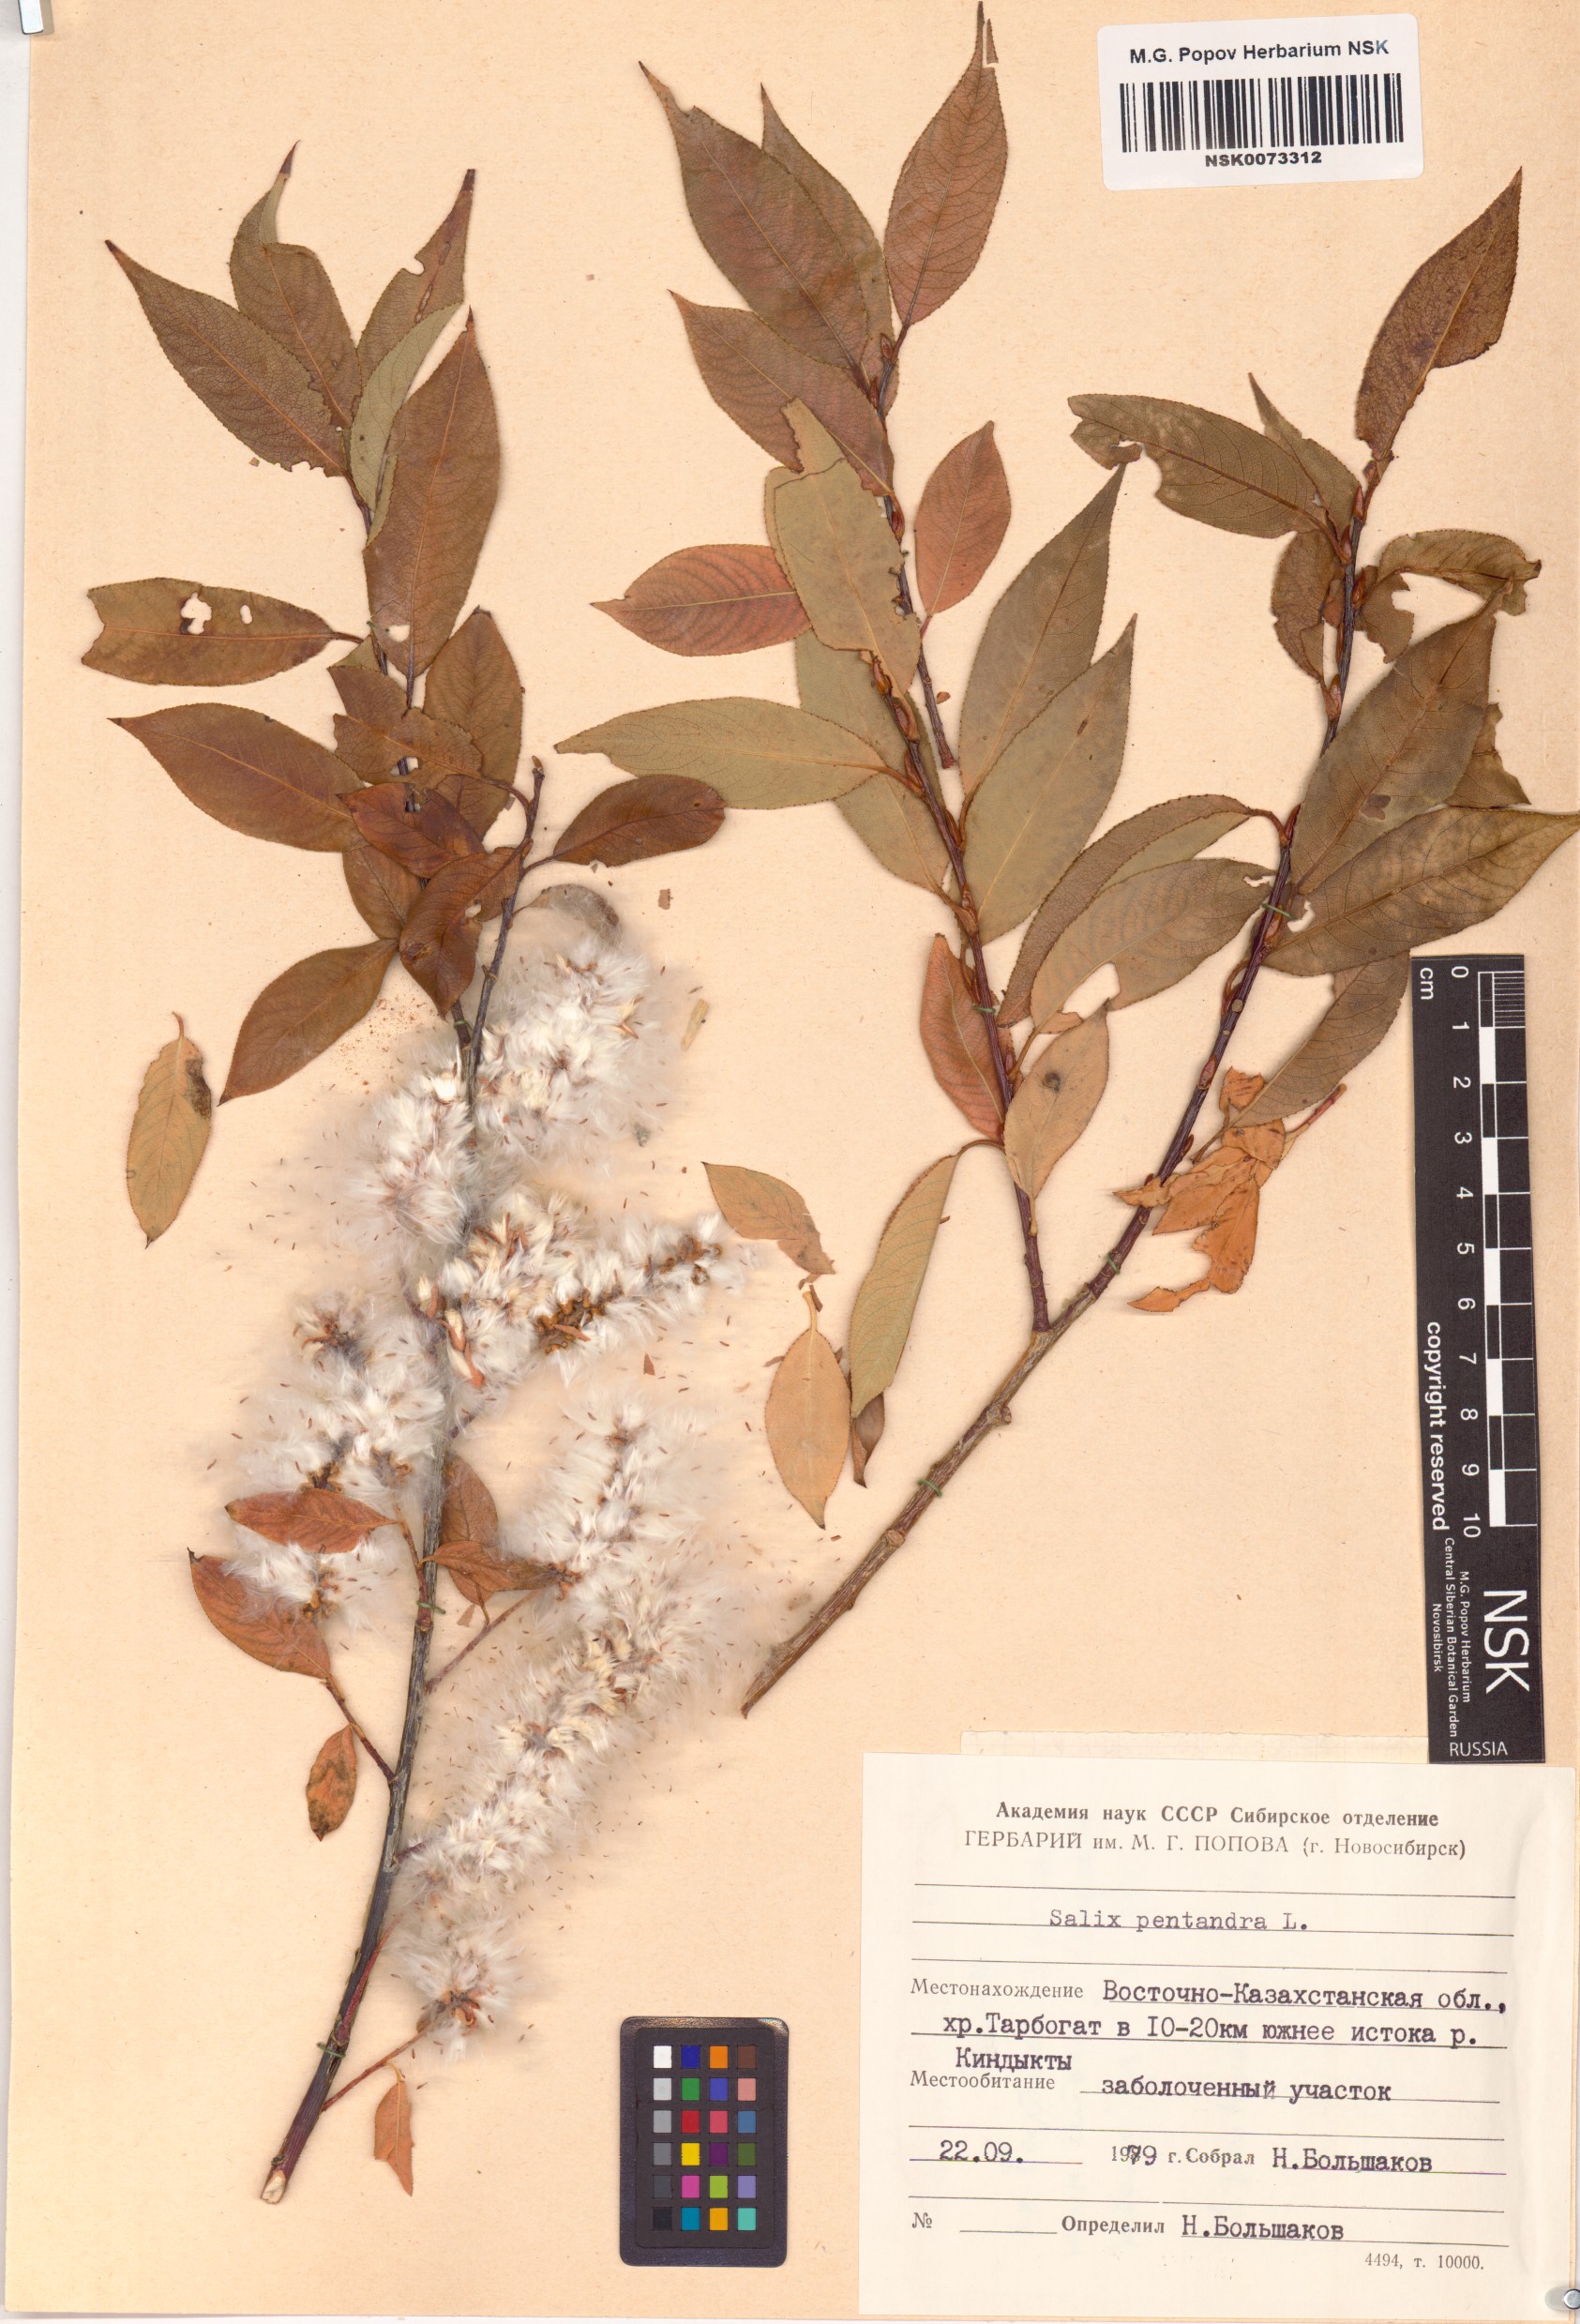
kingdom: Plantae
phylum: Tracheophyta
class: Magnoliopsida
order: Malpighiales
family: Salicaceae
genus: Salix
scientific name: Salix pentandra
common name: Bay willow
